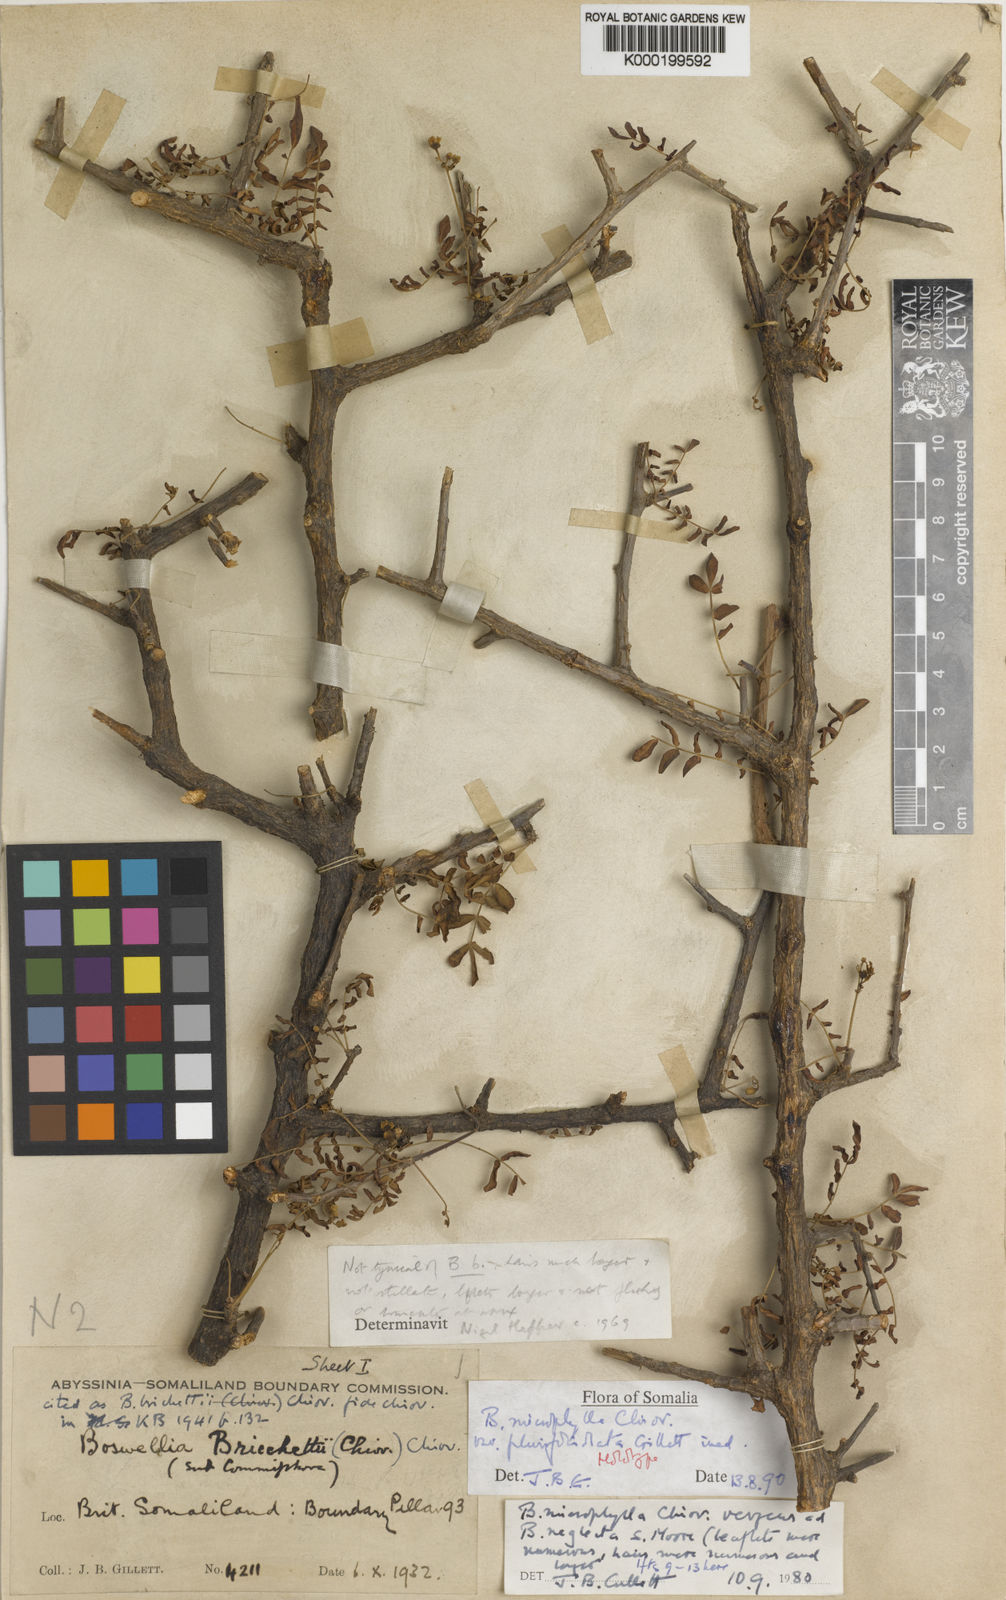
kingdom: Plantae
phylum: Tracheophyta
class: Magnoliopsida
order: Sapindales
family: Burseraceae
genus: Boswellia
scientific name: Boswellia
